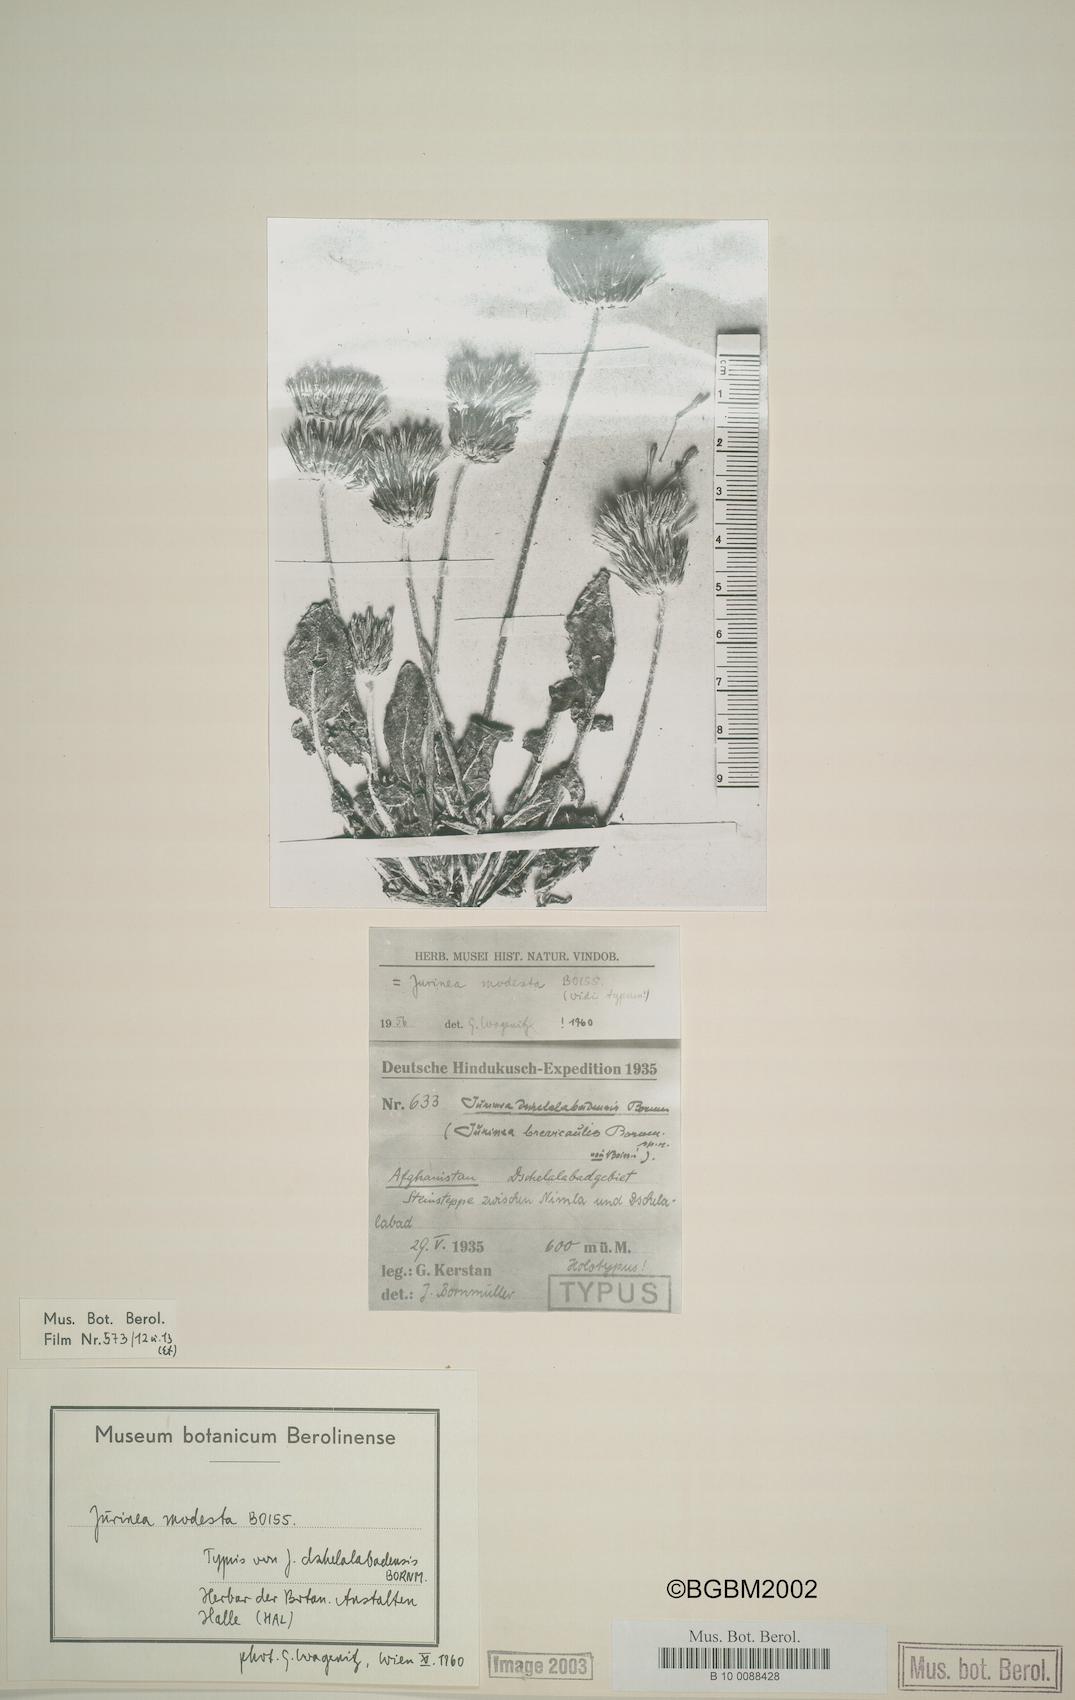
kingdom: Plantae
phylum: Tracheophyta
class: Magnoliopsida
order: Asterales
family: Asteraceae
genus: Jurinea
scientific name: Jurinea modesta
